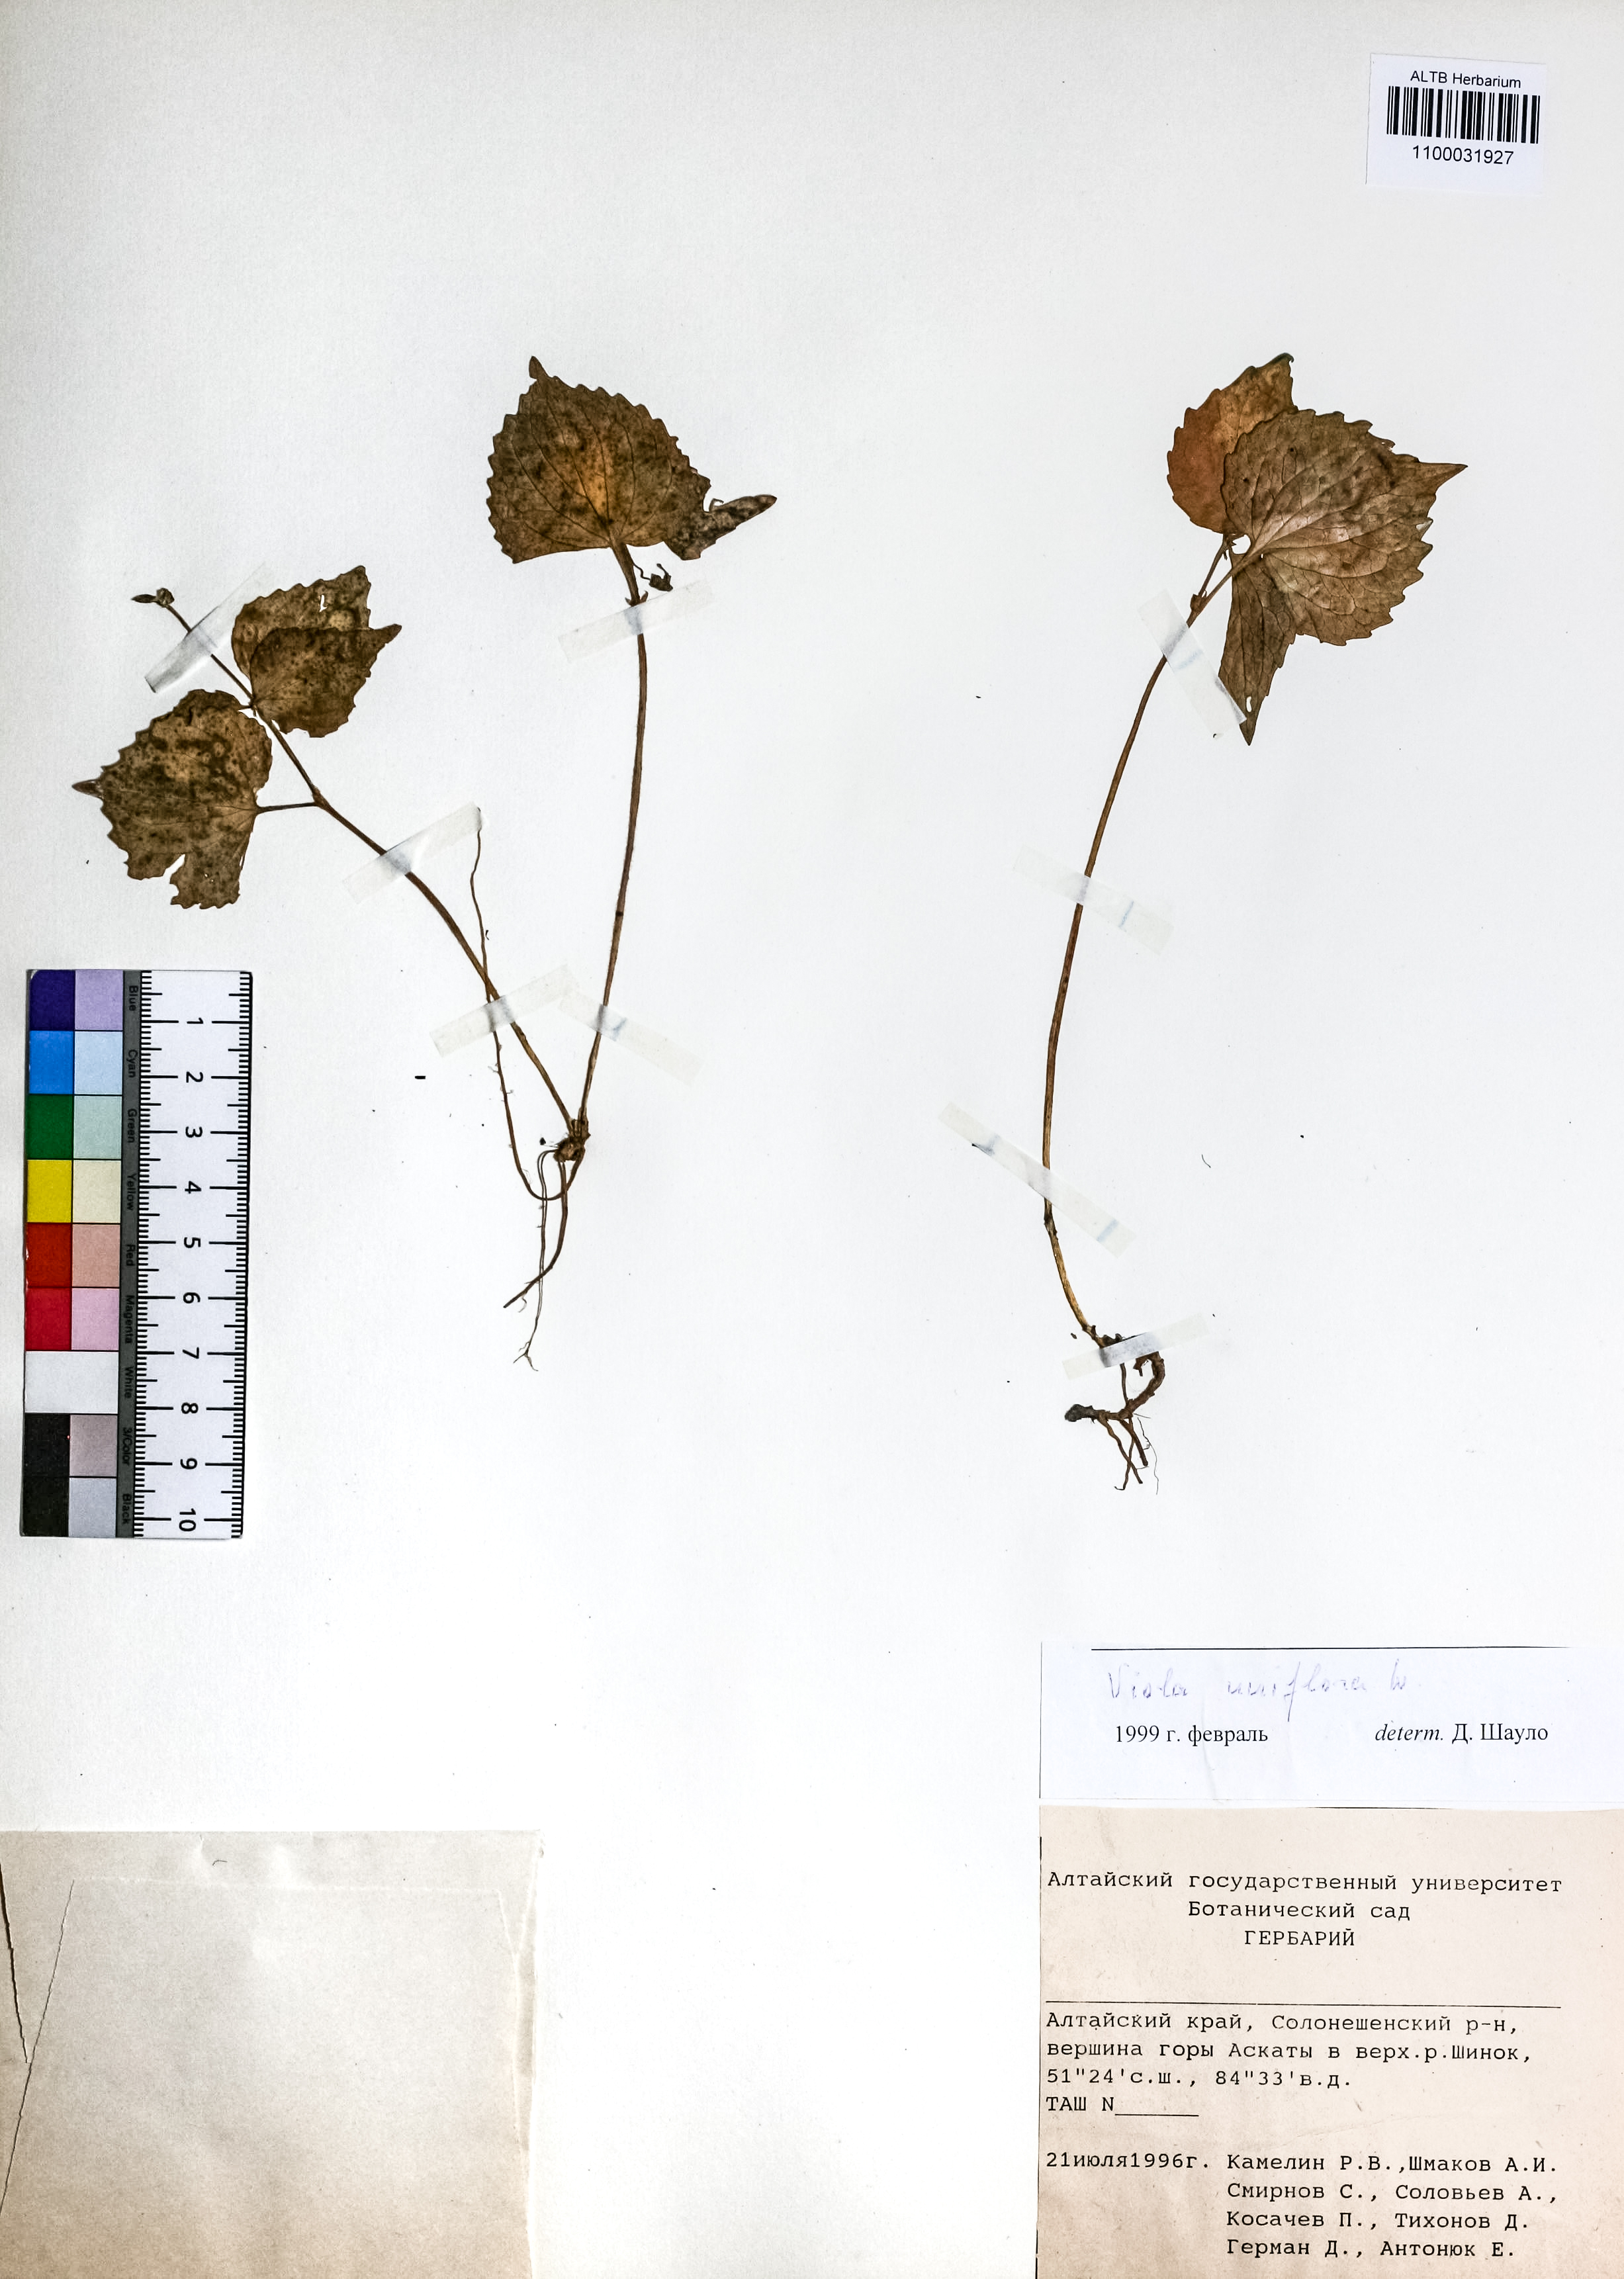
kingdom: Plantae
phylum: Tracheophyta
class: Magnoliopsida
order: Malpighiales
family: Violaceae
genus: Viola
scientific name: Viola uniflora
